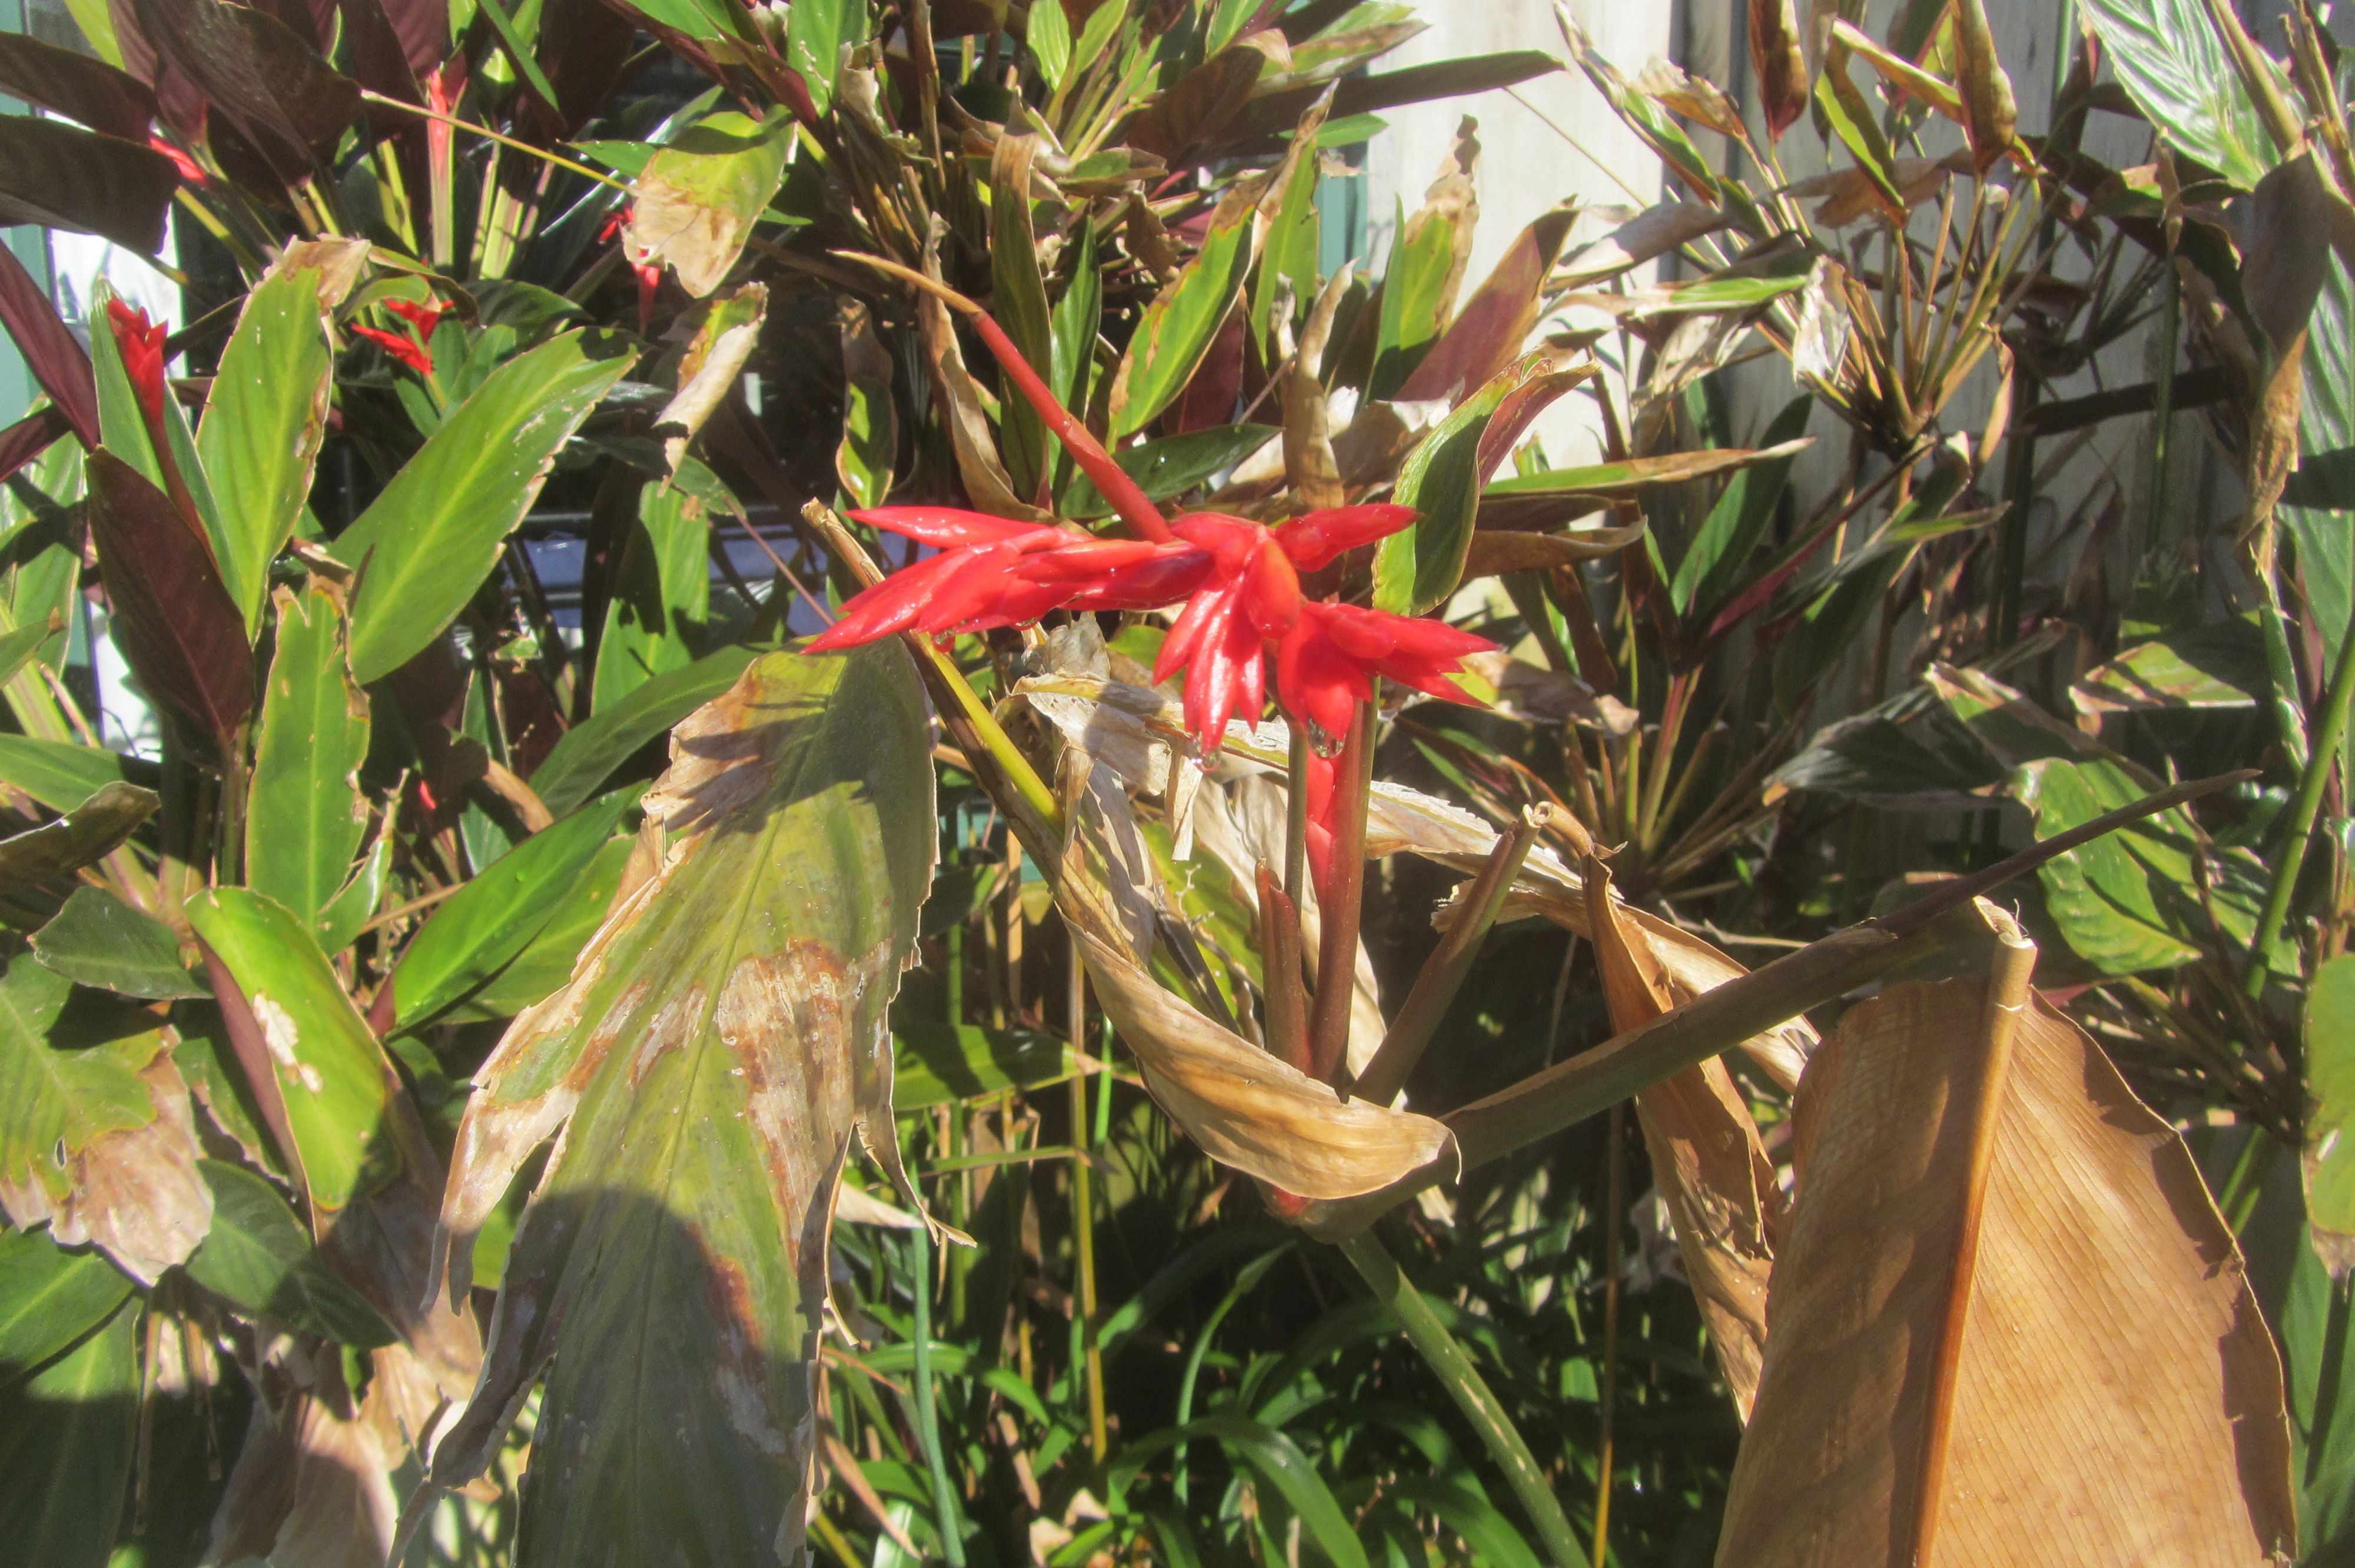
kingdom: Plantae
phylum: Tracheophyta
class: Liliopsida
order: Zingiberales
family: Marantaceae
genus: Ctenanthe
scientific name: Ctenanthe setosa
